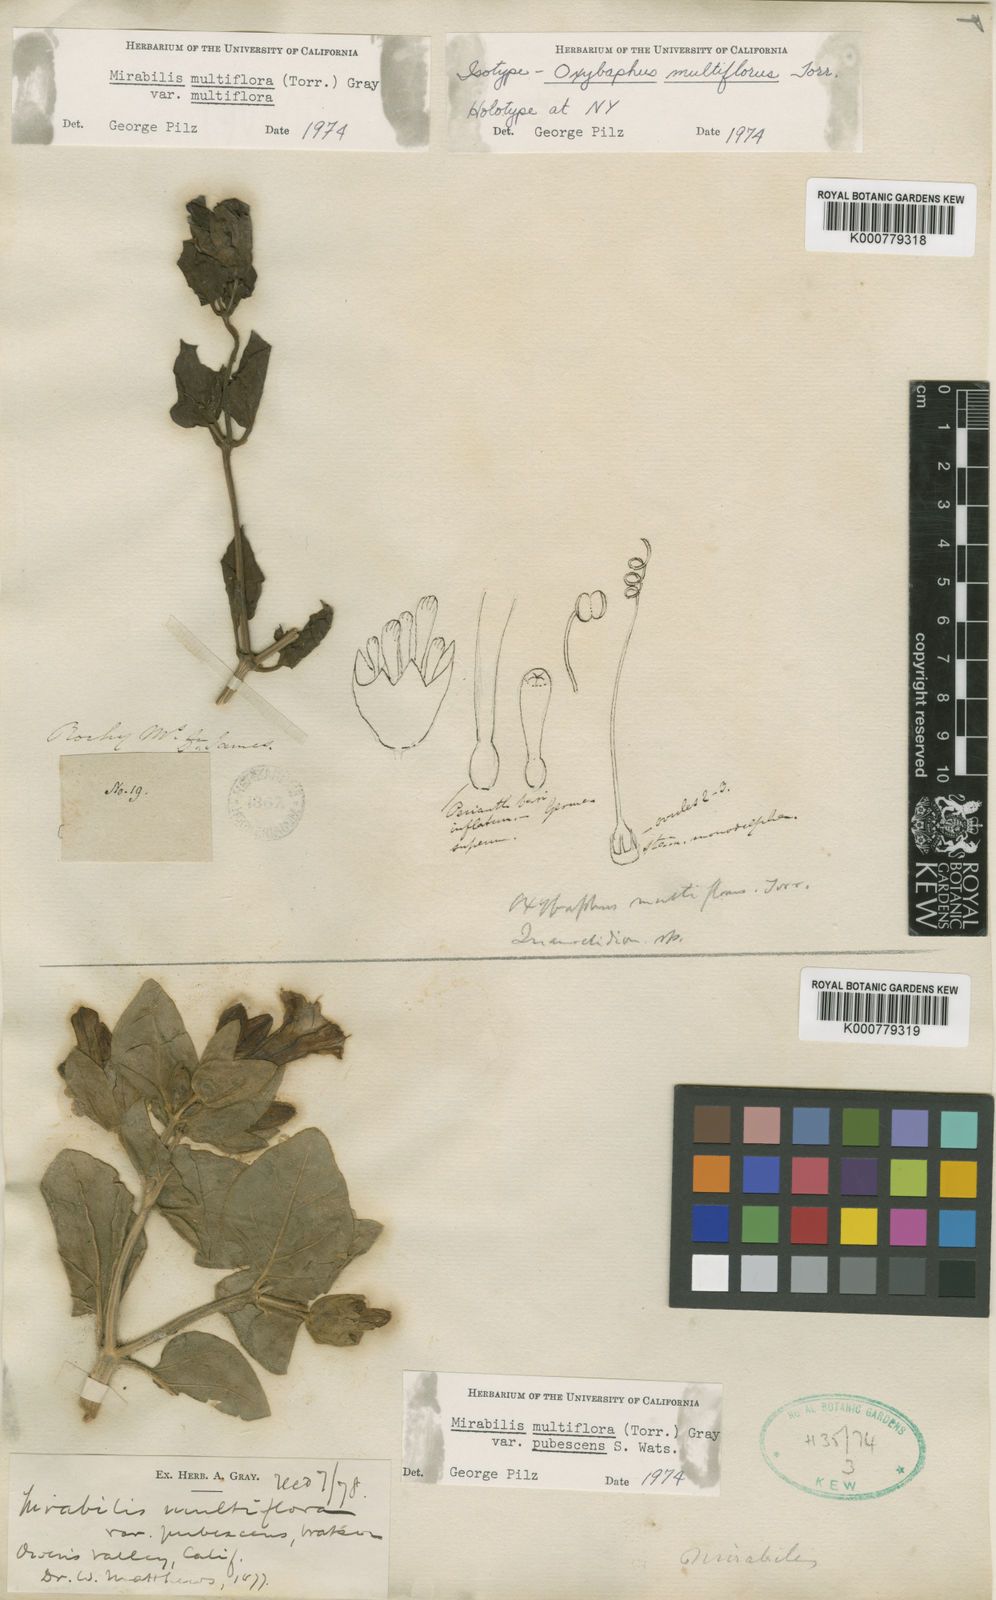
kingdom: Plantae
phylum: Tracheophyta
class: Magnoliopsida
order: Caryophyllales
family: Nyctaginaceae
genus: Mirabilis
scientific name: Mirabilis multiflora
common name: Froebel's four-o'clock
